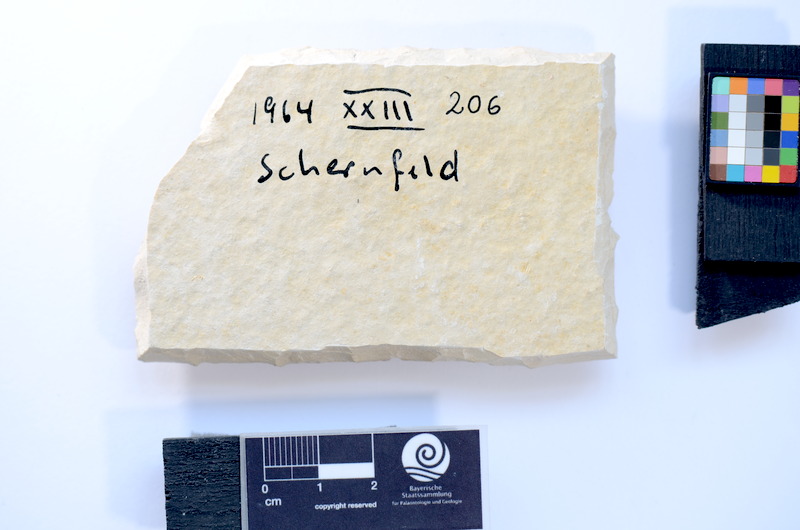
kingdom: Animalia
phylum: Chordata
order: Salmoniformes
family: Orthogonikleithridae
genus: Leptolepides
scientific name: Leptolepides sprattiformis
